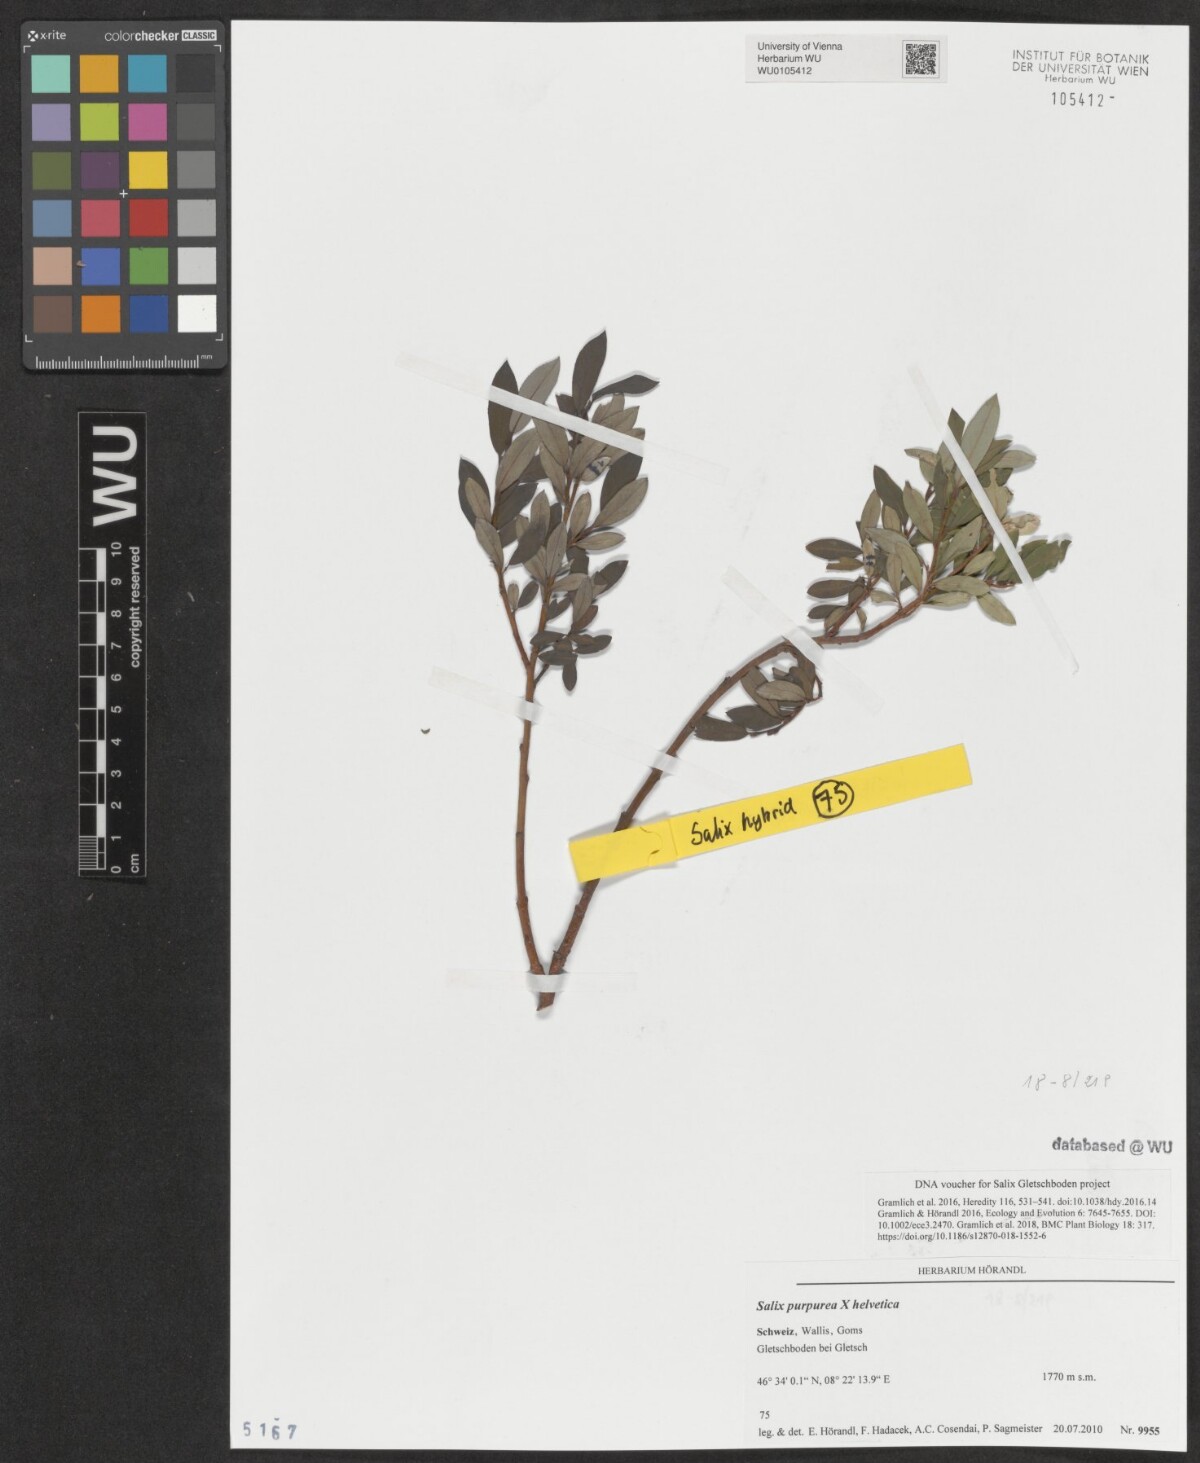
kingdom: Plantae
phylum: Tracheophyta
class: Magnoliopsida
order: Malpighiales
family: Salicaceae
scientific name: Salicaceae
